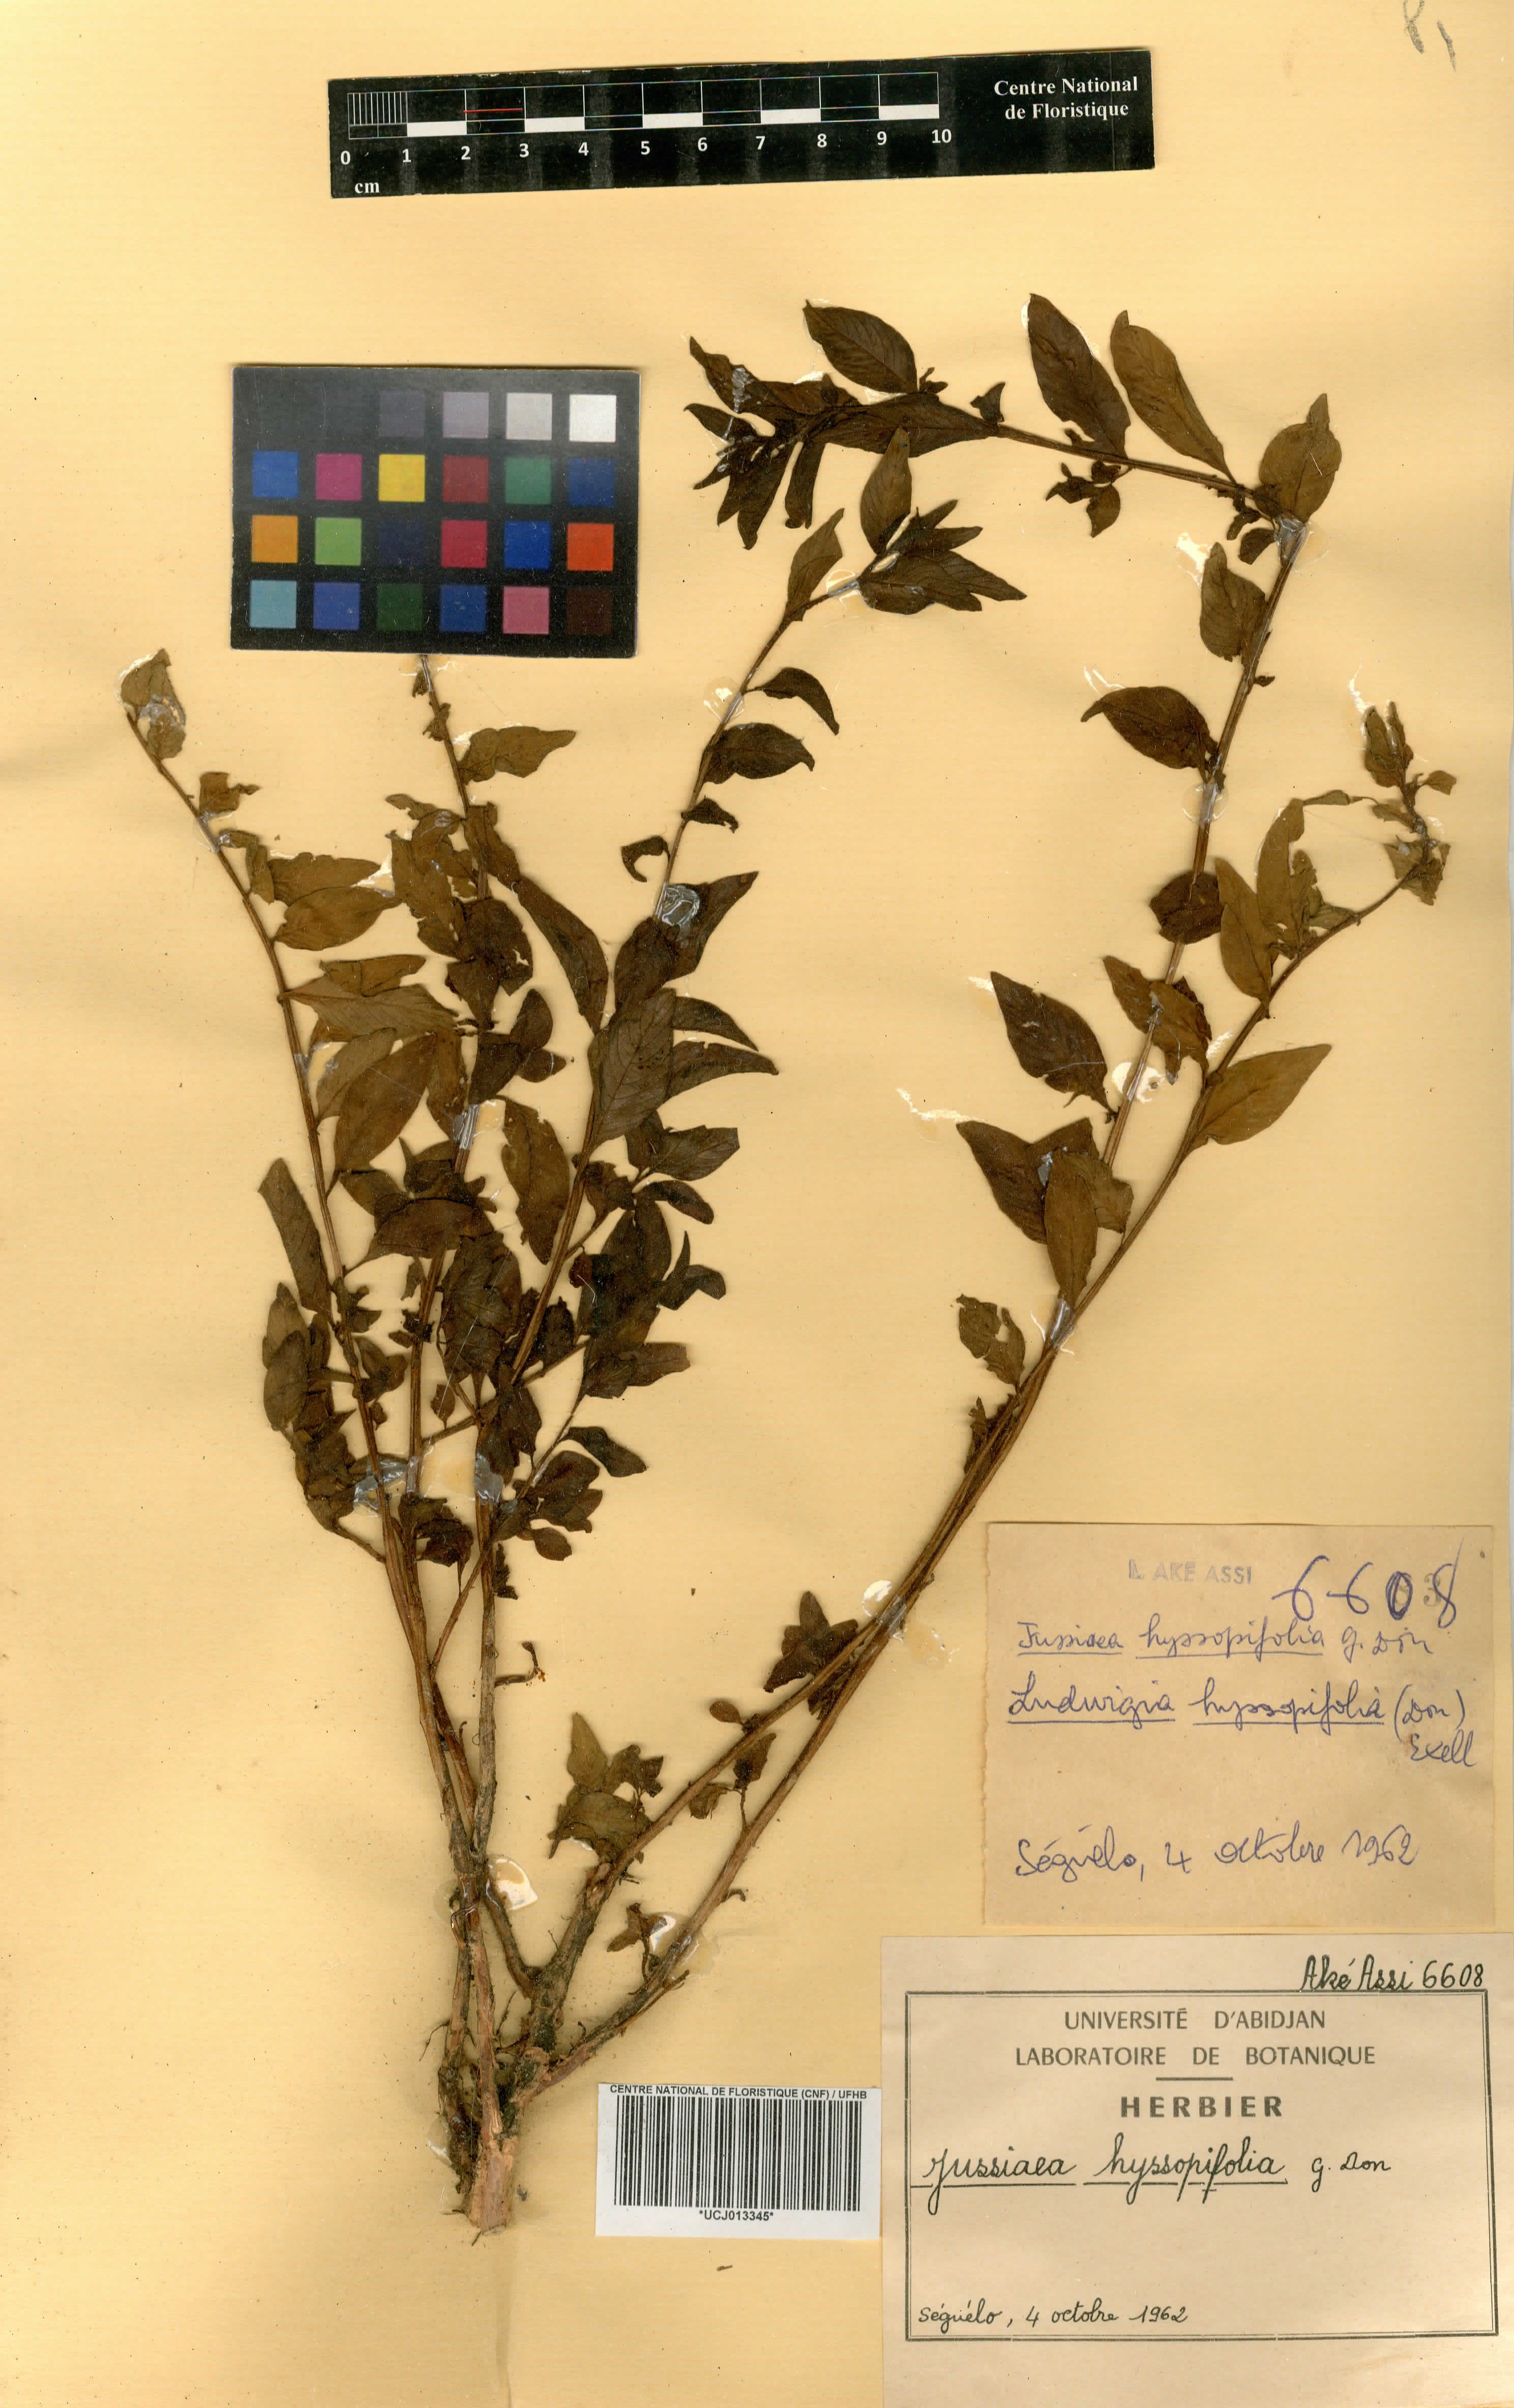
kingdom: Plantae
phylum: Tracheophyta
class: Magnoliopsida
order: Myrtales
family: Onagraceae
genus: Ludwigia
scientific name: Ludwigia hyssopifolia
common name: Linear leaf water primrose
